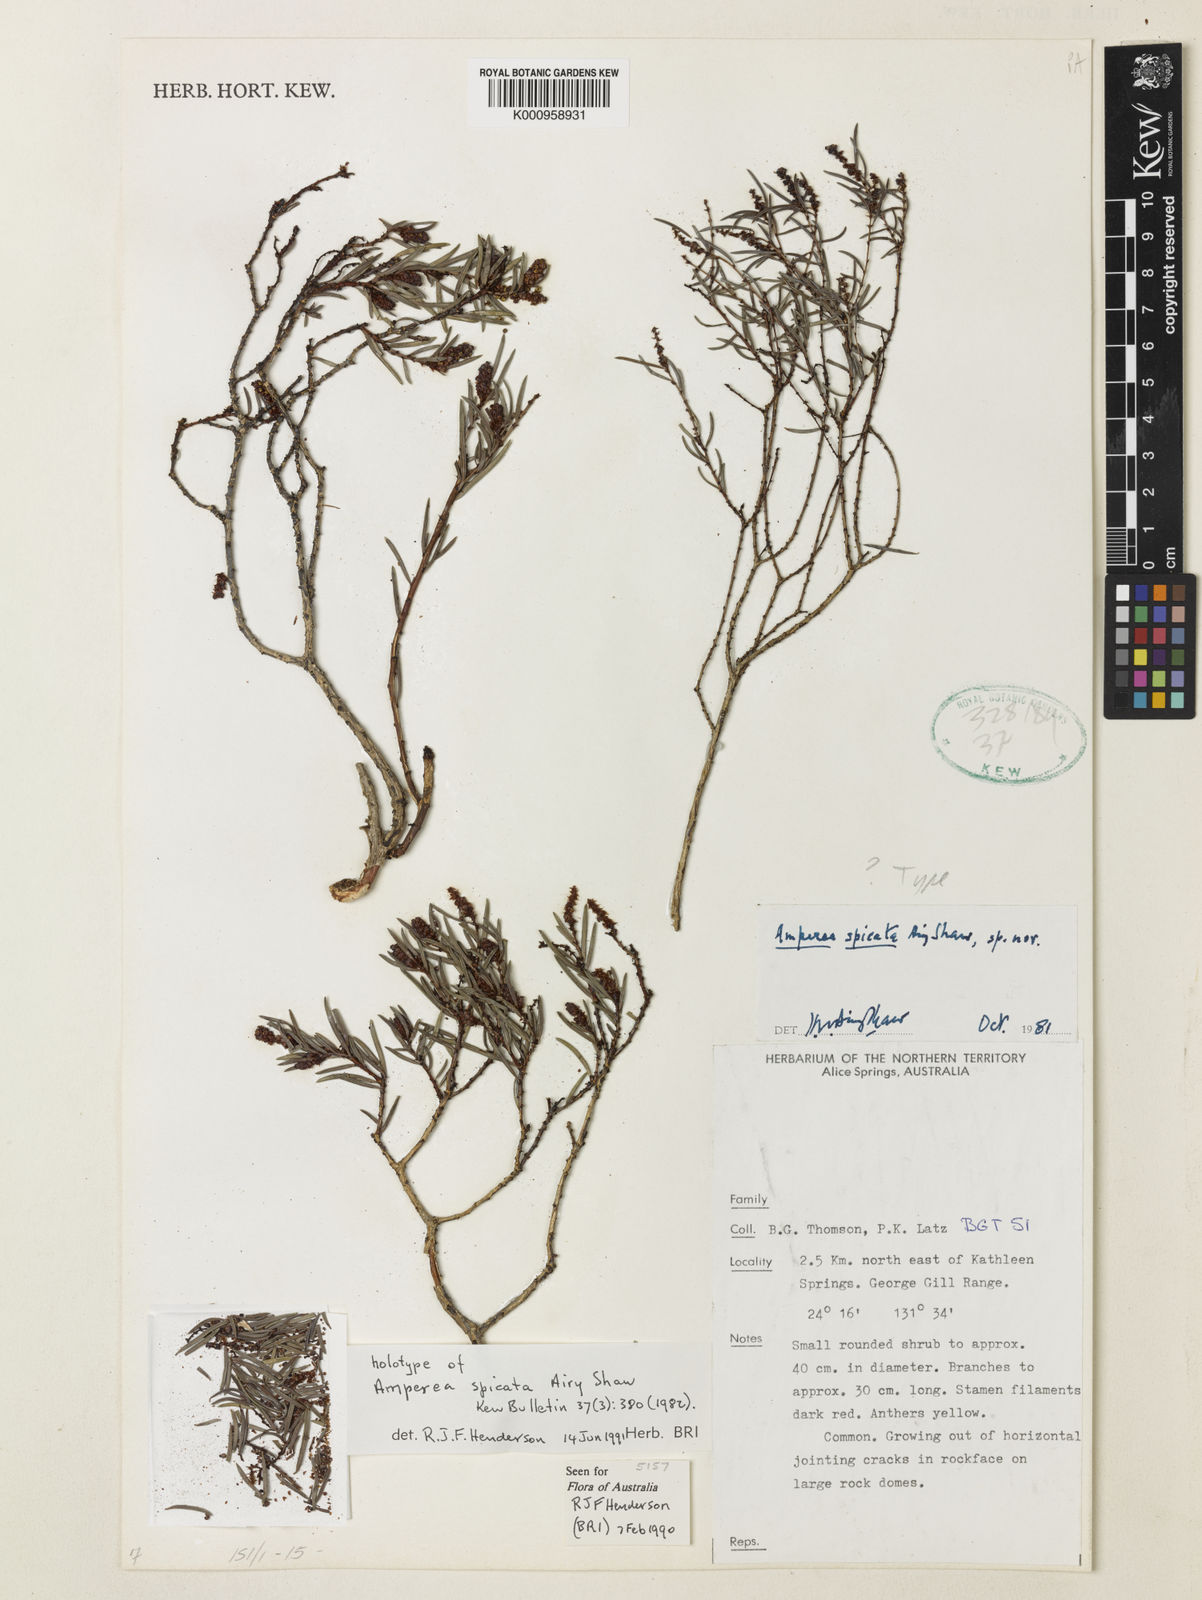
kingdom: Plantae
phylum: Tracheophyta
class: Magnoliopsida
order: Malpighiales
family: Euphorbiaceae
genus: Amperea
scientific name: Amperea spicata
